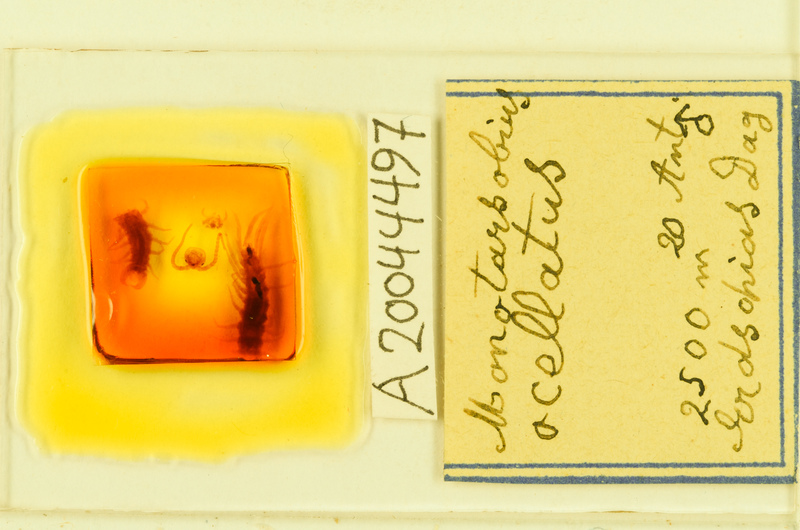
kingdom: Animalia
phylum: Arthropoda
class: Chilopoda
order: Lithobiomorpha
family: Lithobiidae
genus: Monotarsobius
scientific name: Monotarsobius
